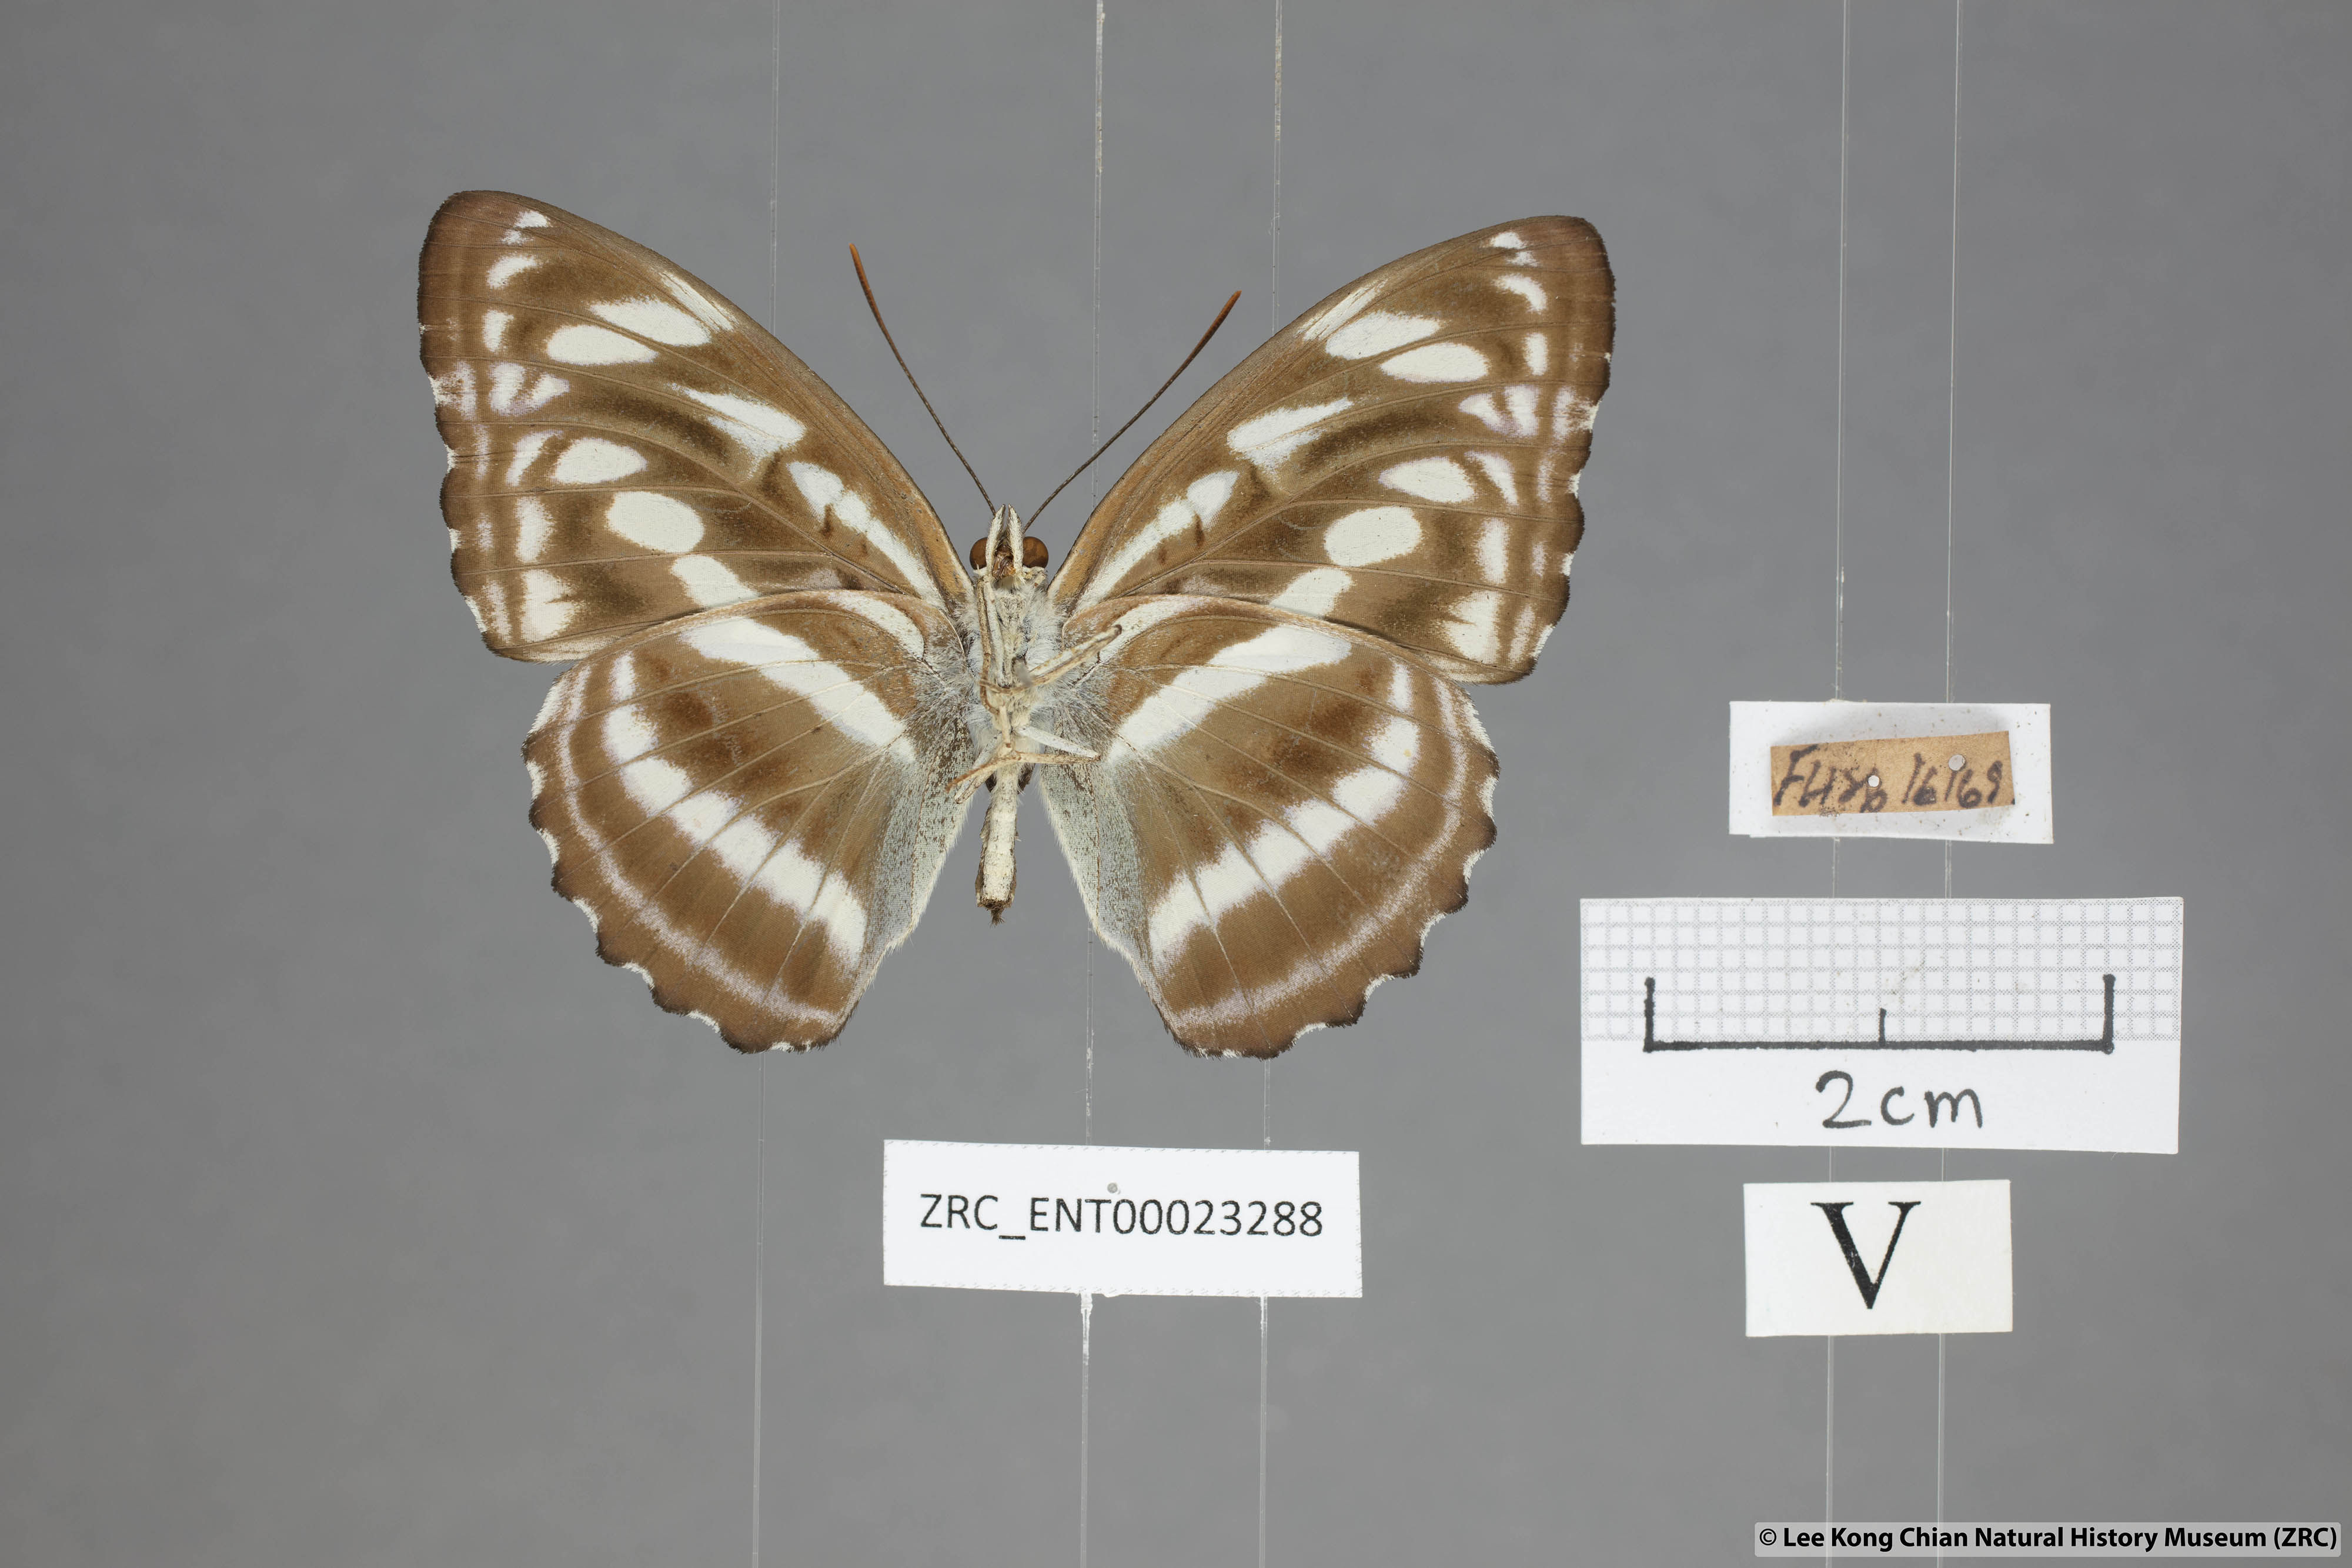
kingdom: Animalia
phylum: Arthropoda
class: Insecta
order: Lepidoptera
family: Nymphalidae
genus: Parathyma
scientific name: Parathyma selenophora
